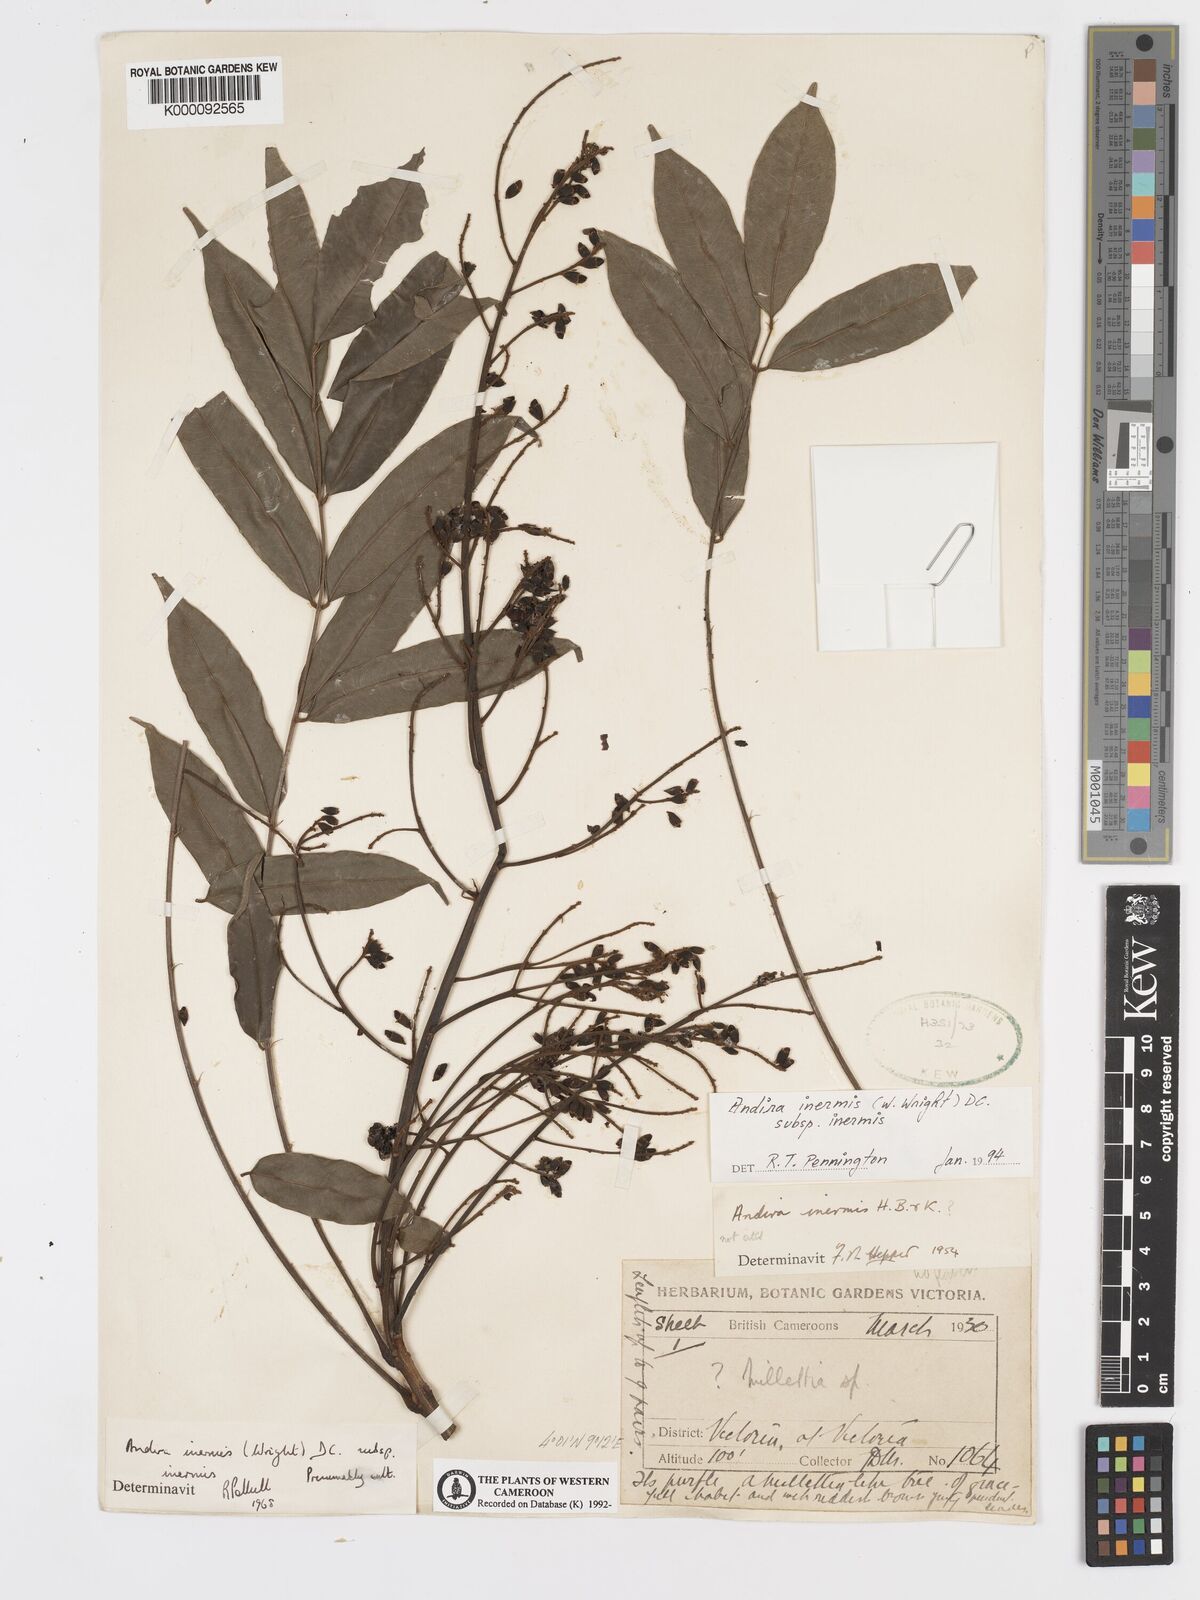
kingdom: Plantae
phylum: Tracheophyta
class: Magnoliopsida
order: Fabales
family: Fabaceae
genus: Andira
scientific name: Andira inermis
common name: Angelin
